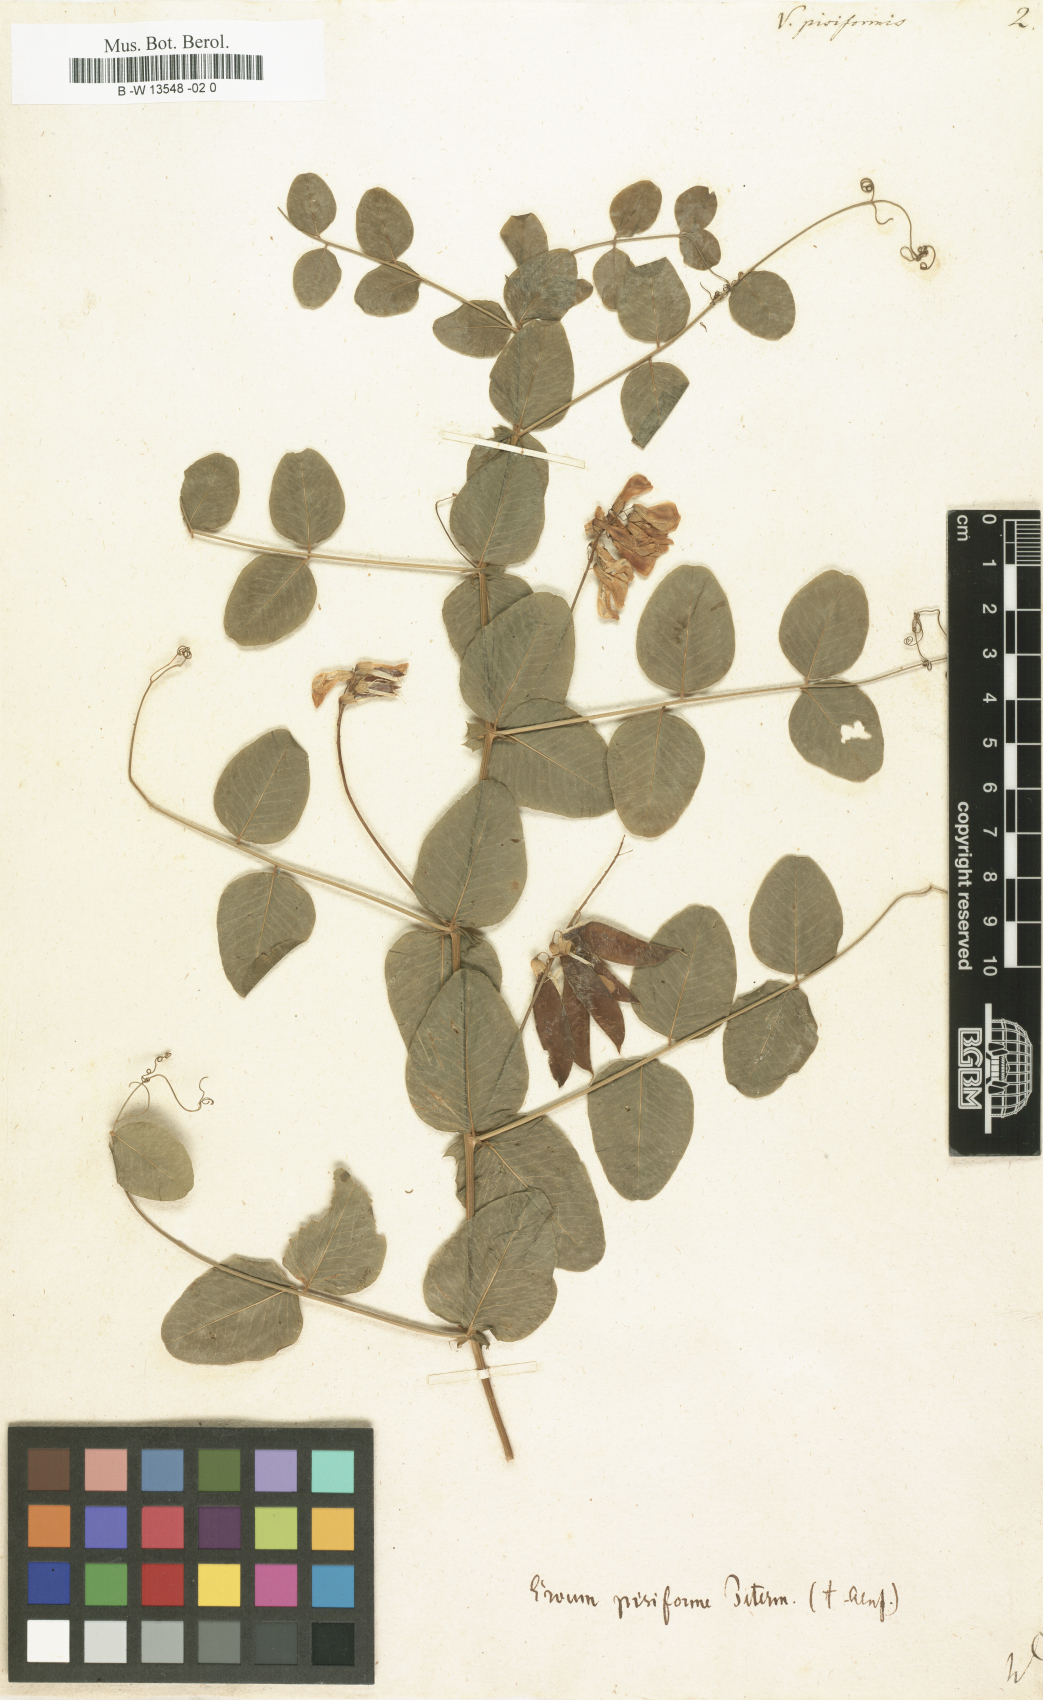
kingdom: Plantae
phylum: Tracheophyta
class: Magnoliopsida
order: Fabales
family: Fabaceae
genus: Vicia
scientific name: Vicia pisiformis
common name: Pale-flower vetch
